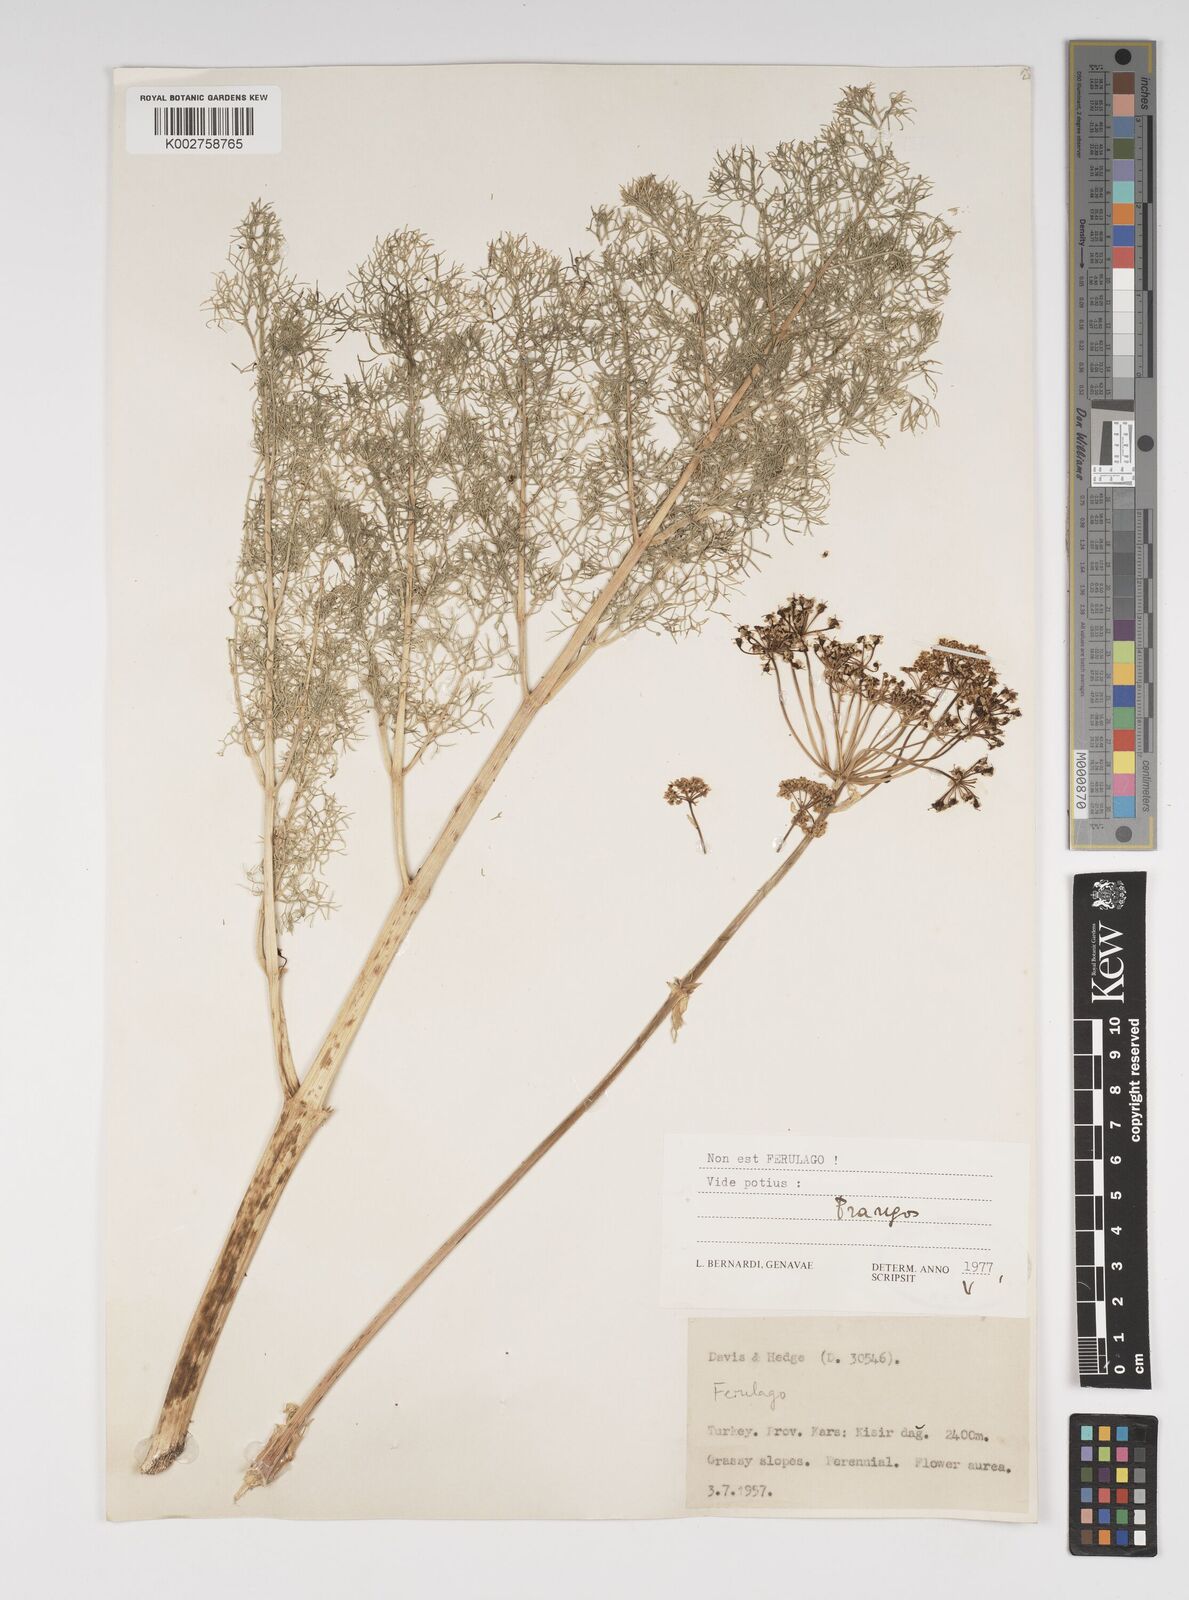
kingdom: Plantae
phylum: Tracheophyta
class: Magnoliopsida
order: Apiales
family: Apiaceae
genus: Cachrys
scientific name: Cachrys
